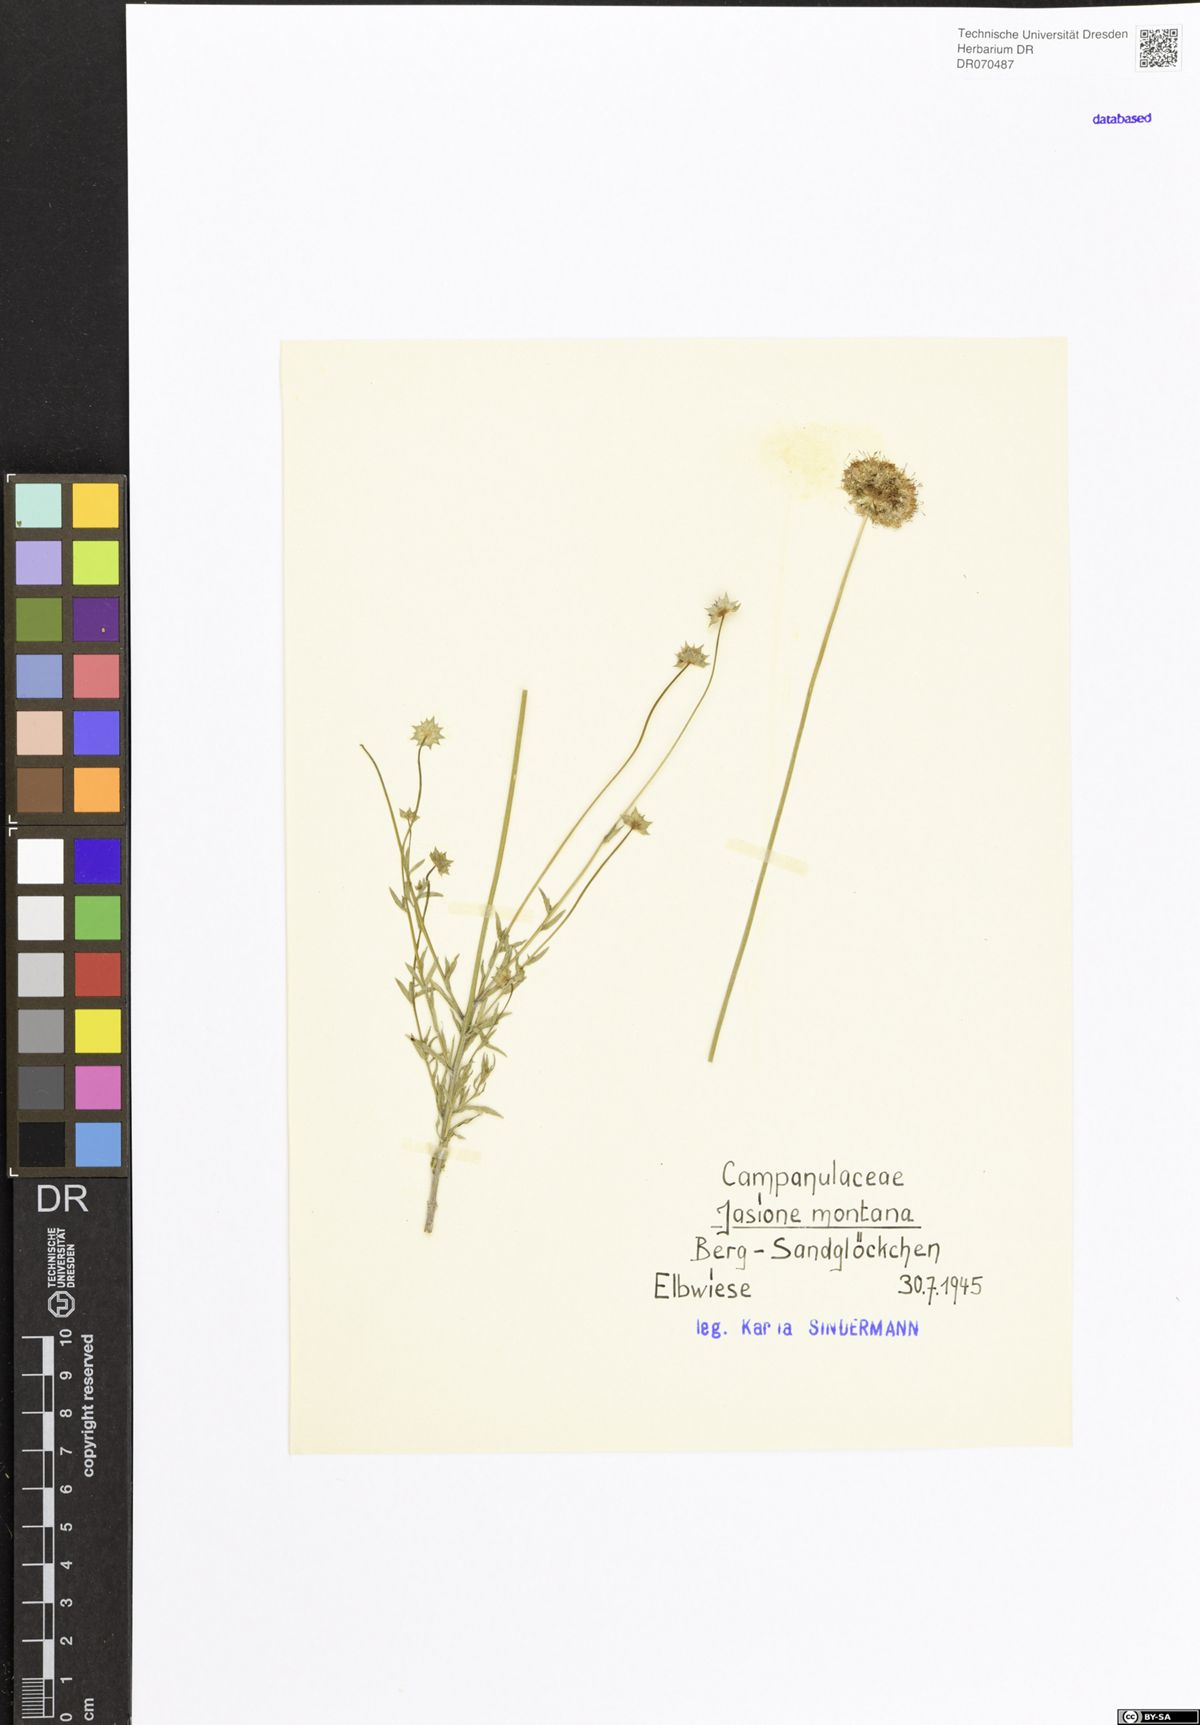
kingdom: Plantae
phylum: Tracheophyta
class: Magnoliopsida
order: Asterales
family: Campanulaceae
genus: Jasione
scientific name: Jasione montana
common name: Sheep's-bit
